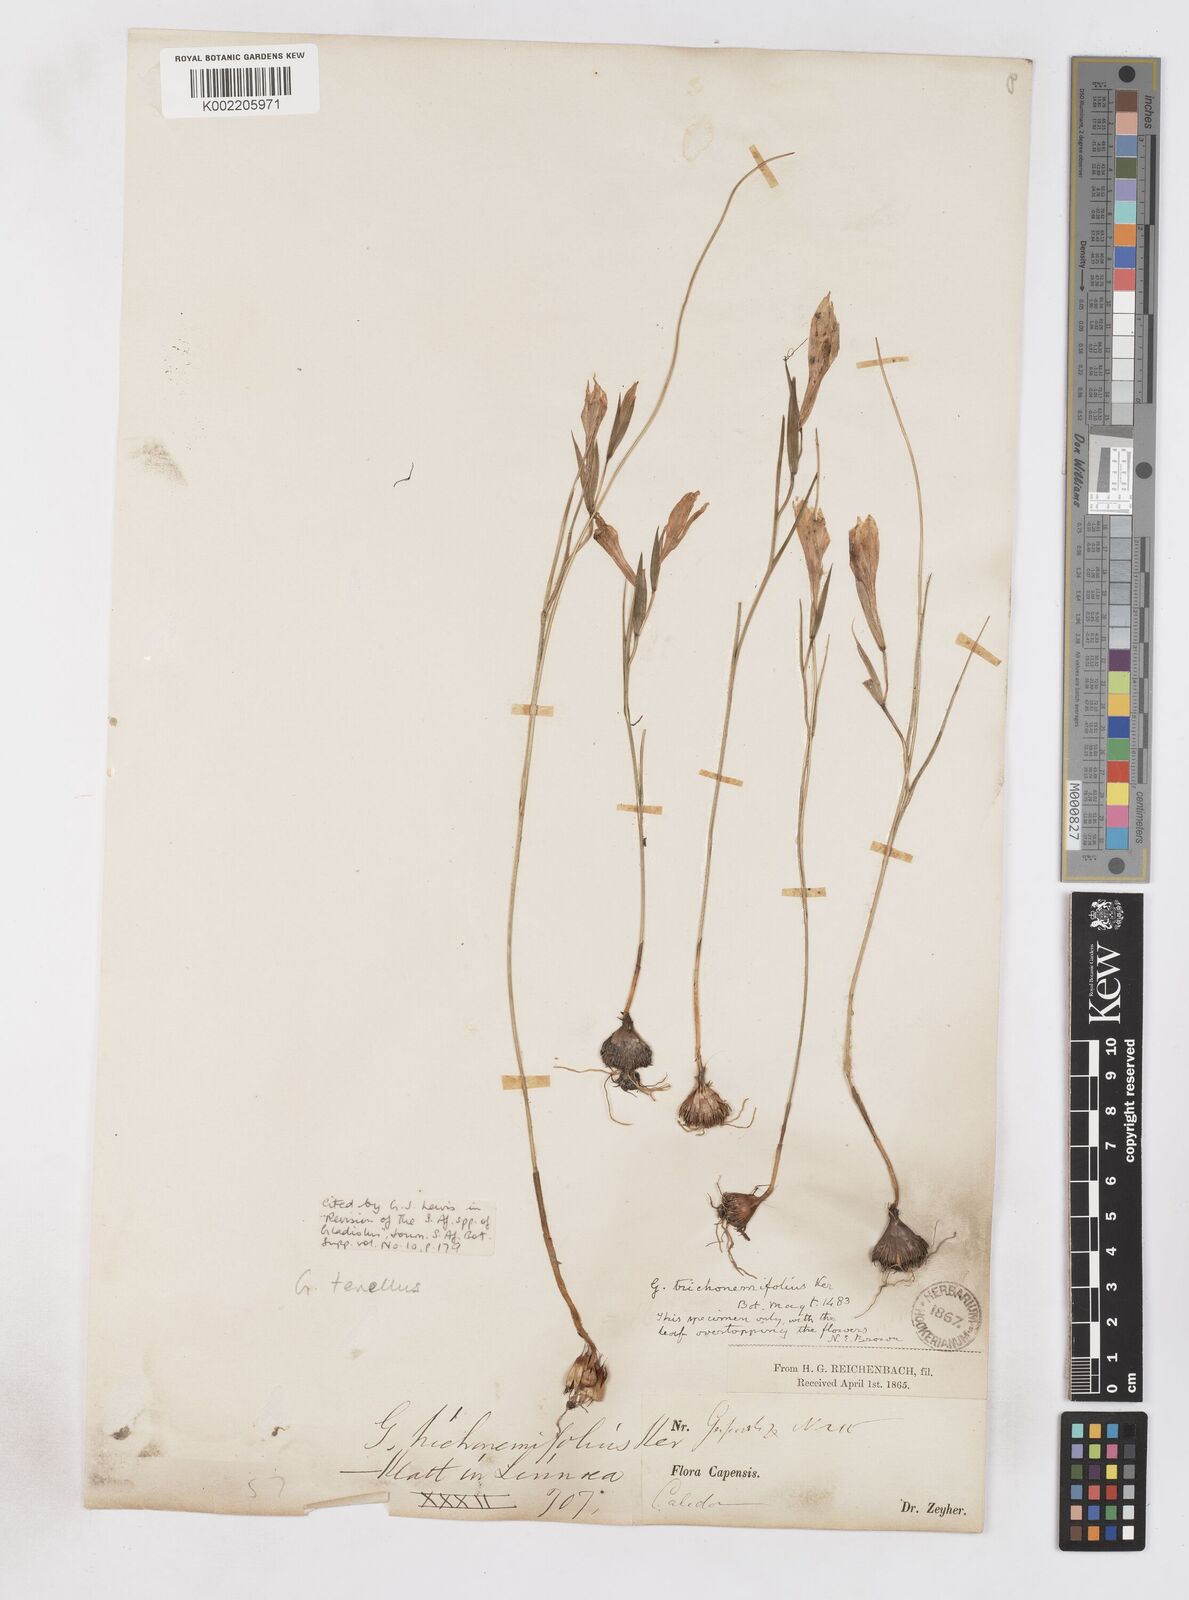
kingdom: Plantae
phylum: Tracheophyta
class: Liliopsida
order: Asparagales
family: Iridaceae
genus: Gladiolus
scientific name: Gladiolus carinatus
